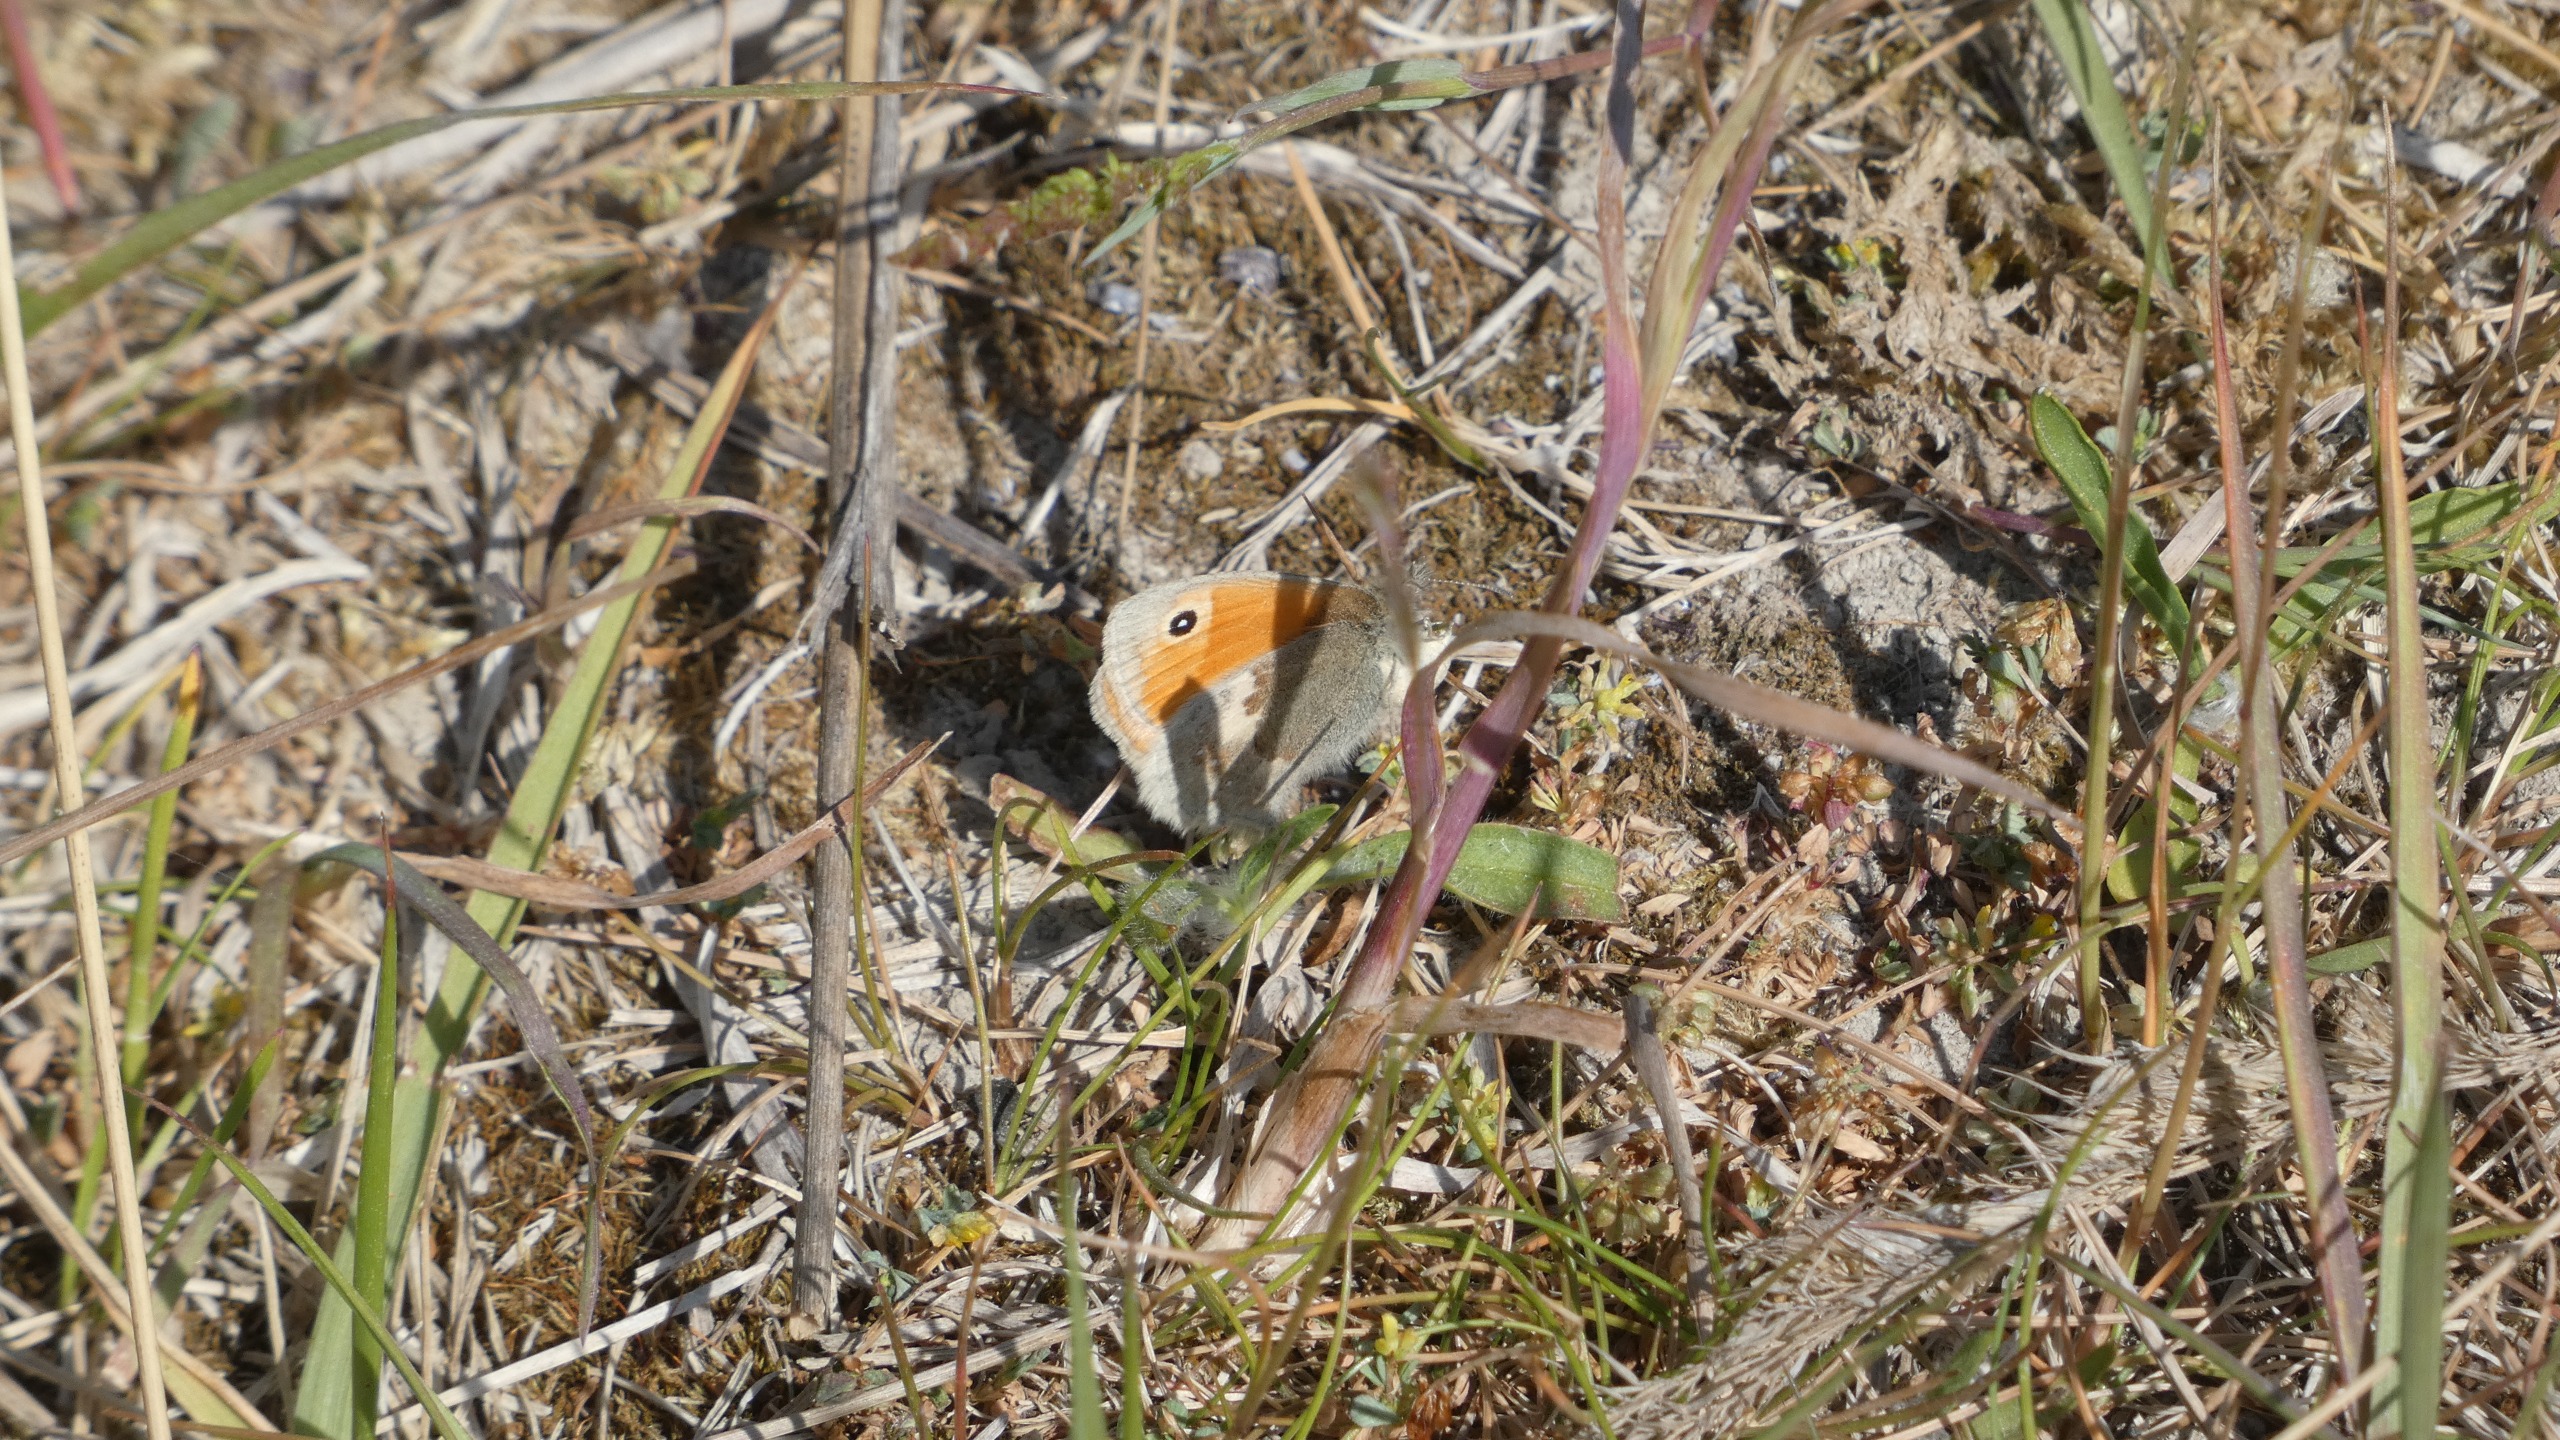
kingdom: Animalia
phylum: Arthropoda
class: Insecta
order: Lepidoptera
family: Nymphalidae
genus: Coenonympha
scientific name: Coenonympha pamphilus
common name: Okkergul randøje
